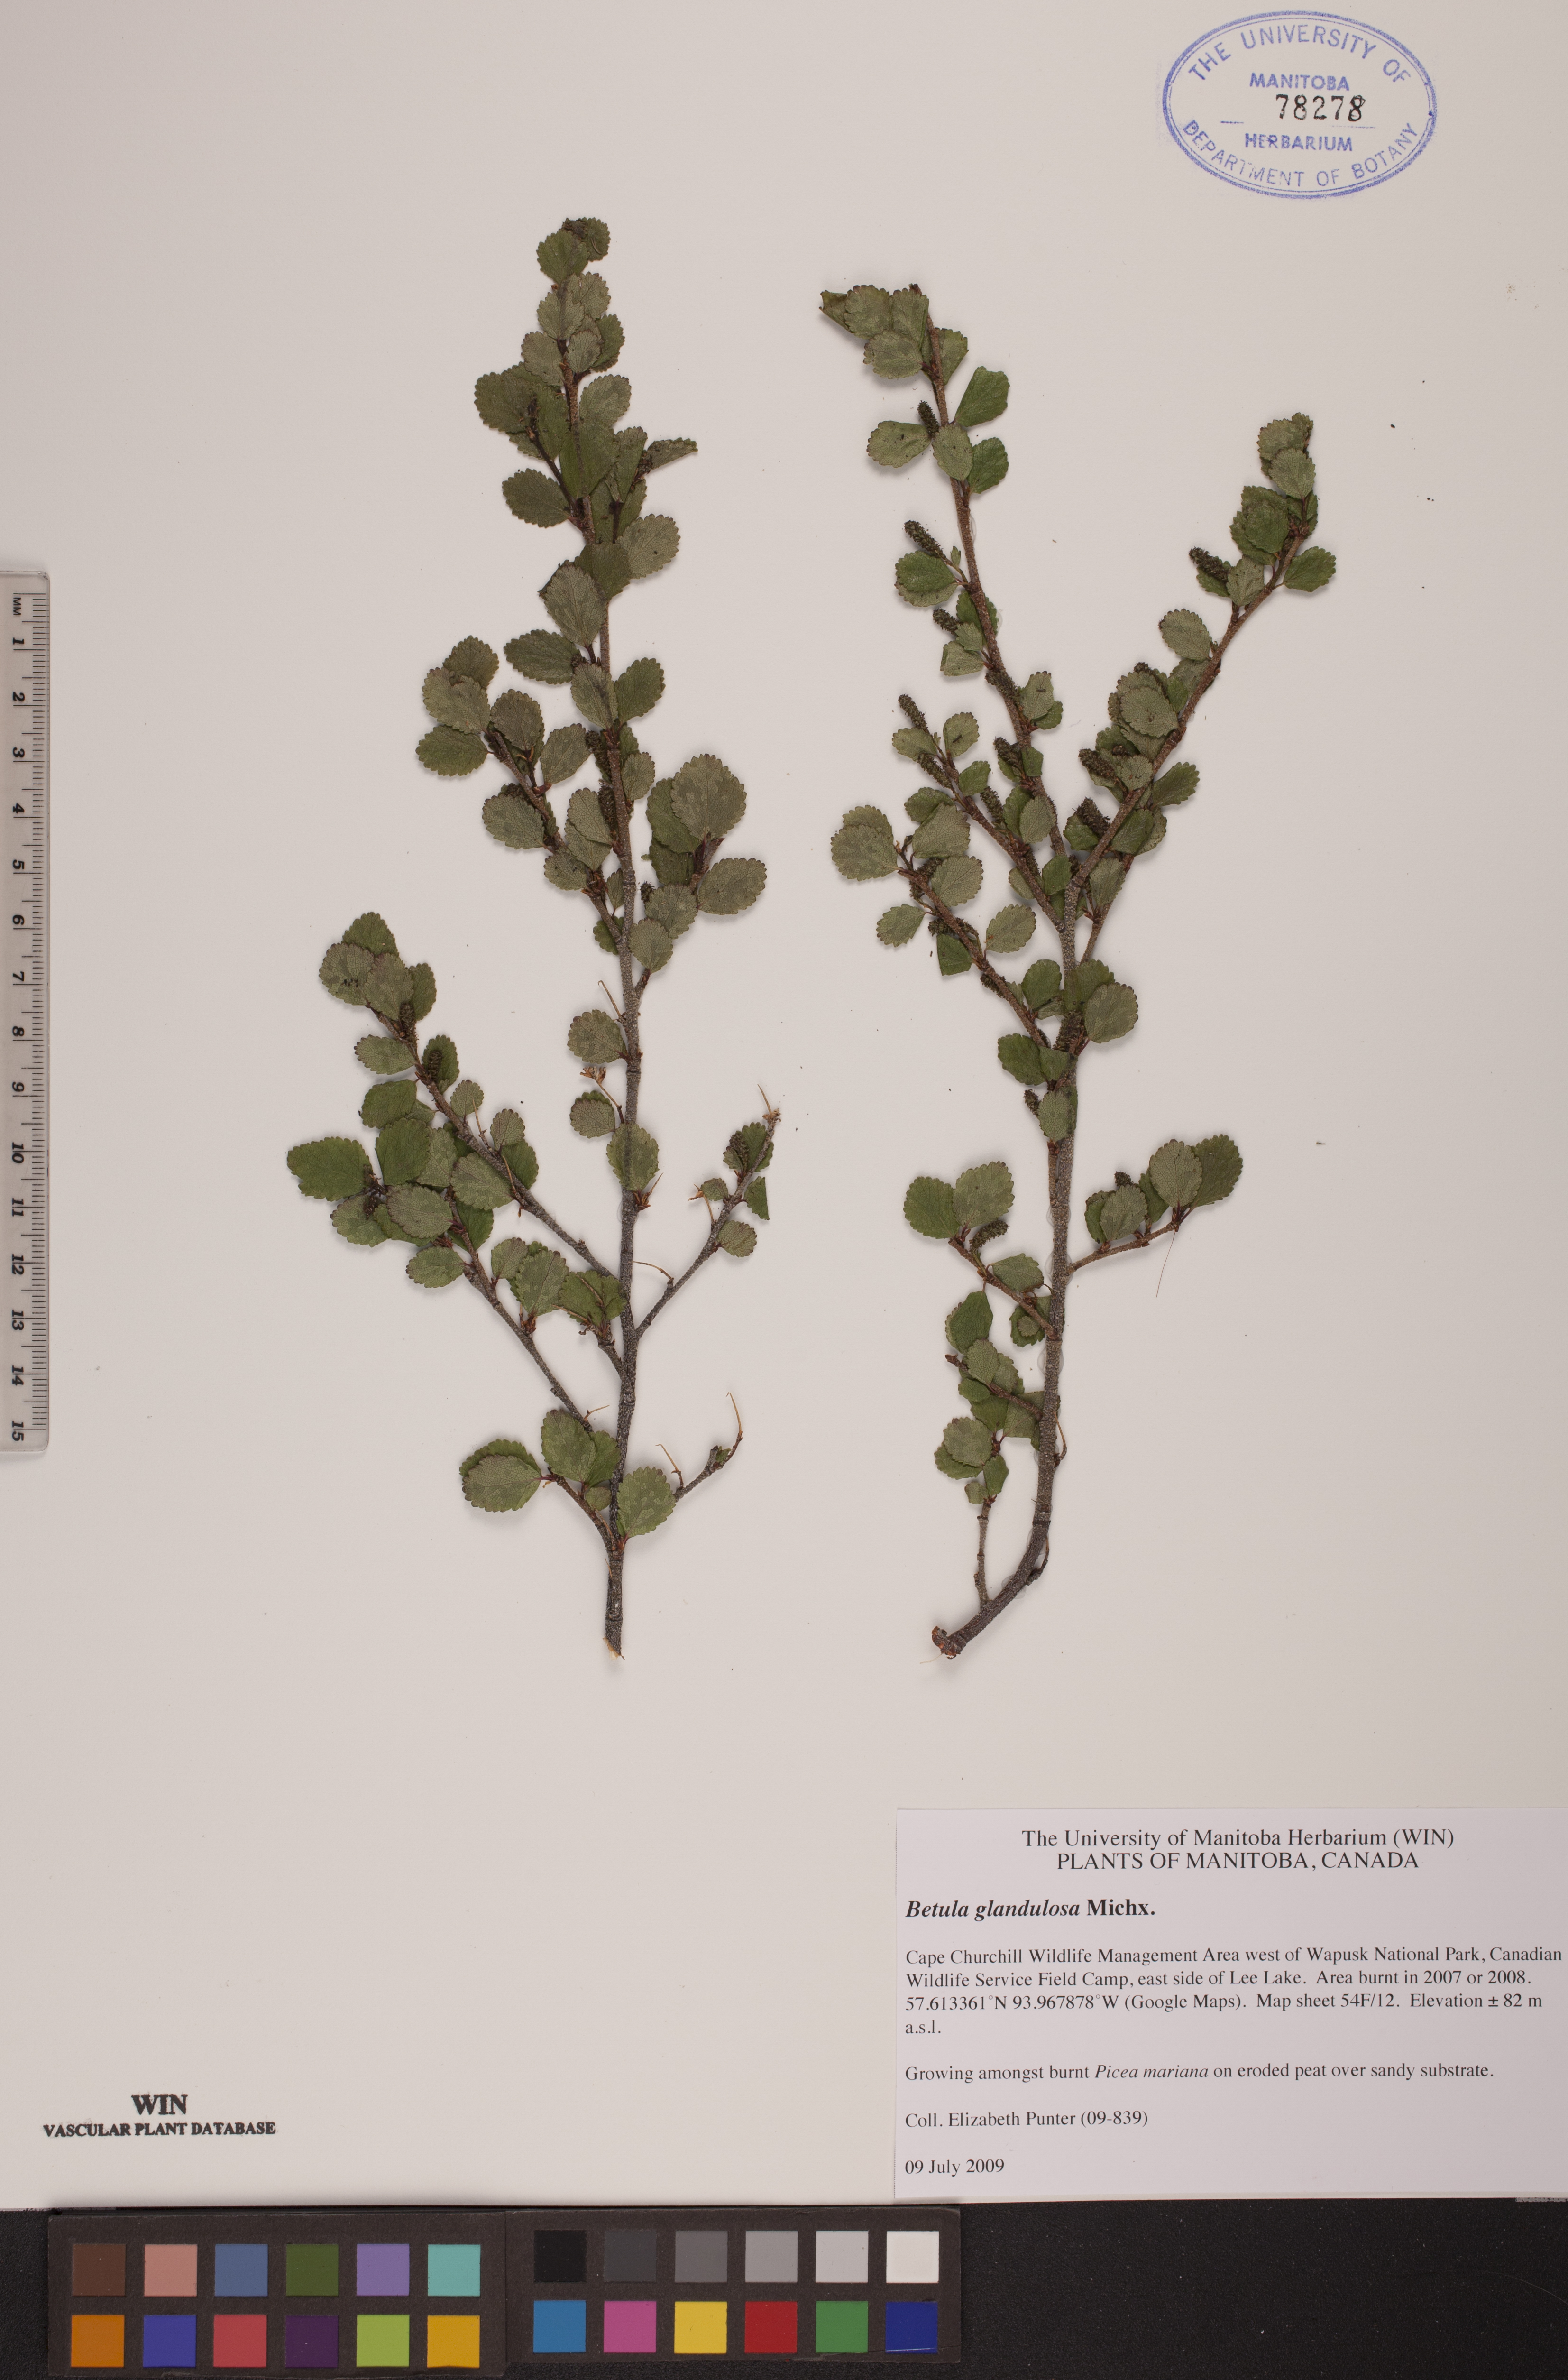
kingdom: Plantae
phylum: Tracheophyta
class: Magnoliopsida
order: Fagales
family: Betulaceae
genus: Betula
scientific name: Betula glandulosa
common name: Dwarf birch
